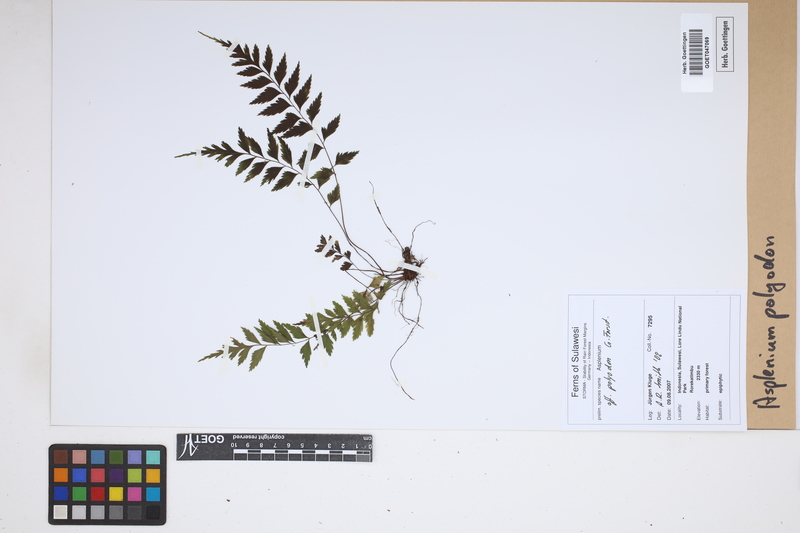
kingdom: Plantae
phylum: Tracheophyta
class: Polypodiopsida
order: Polypodiales
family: Aspleniaceae
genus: Asplenium
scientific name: Asplenium polyodon
